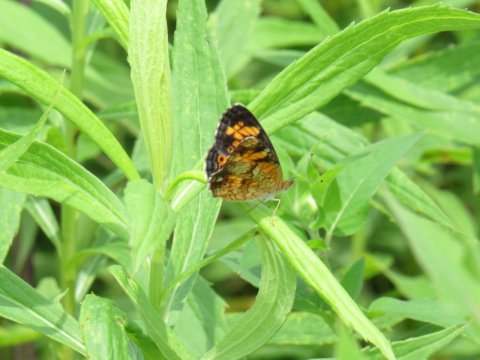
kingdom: Animalia
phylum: Arthropoda
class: Insecta
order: Lepidoptera
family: Nymphalidae
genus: Phyciodes
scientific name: Phyciodes tharos
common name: Pearl Crescent
